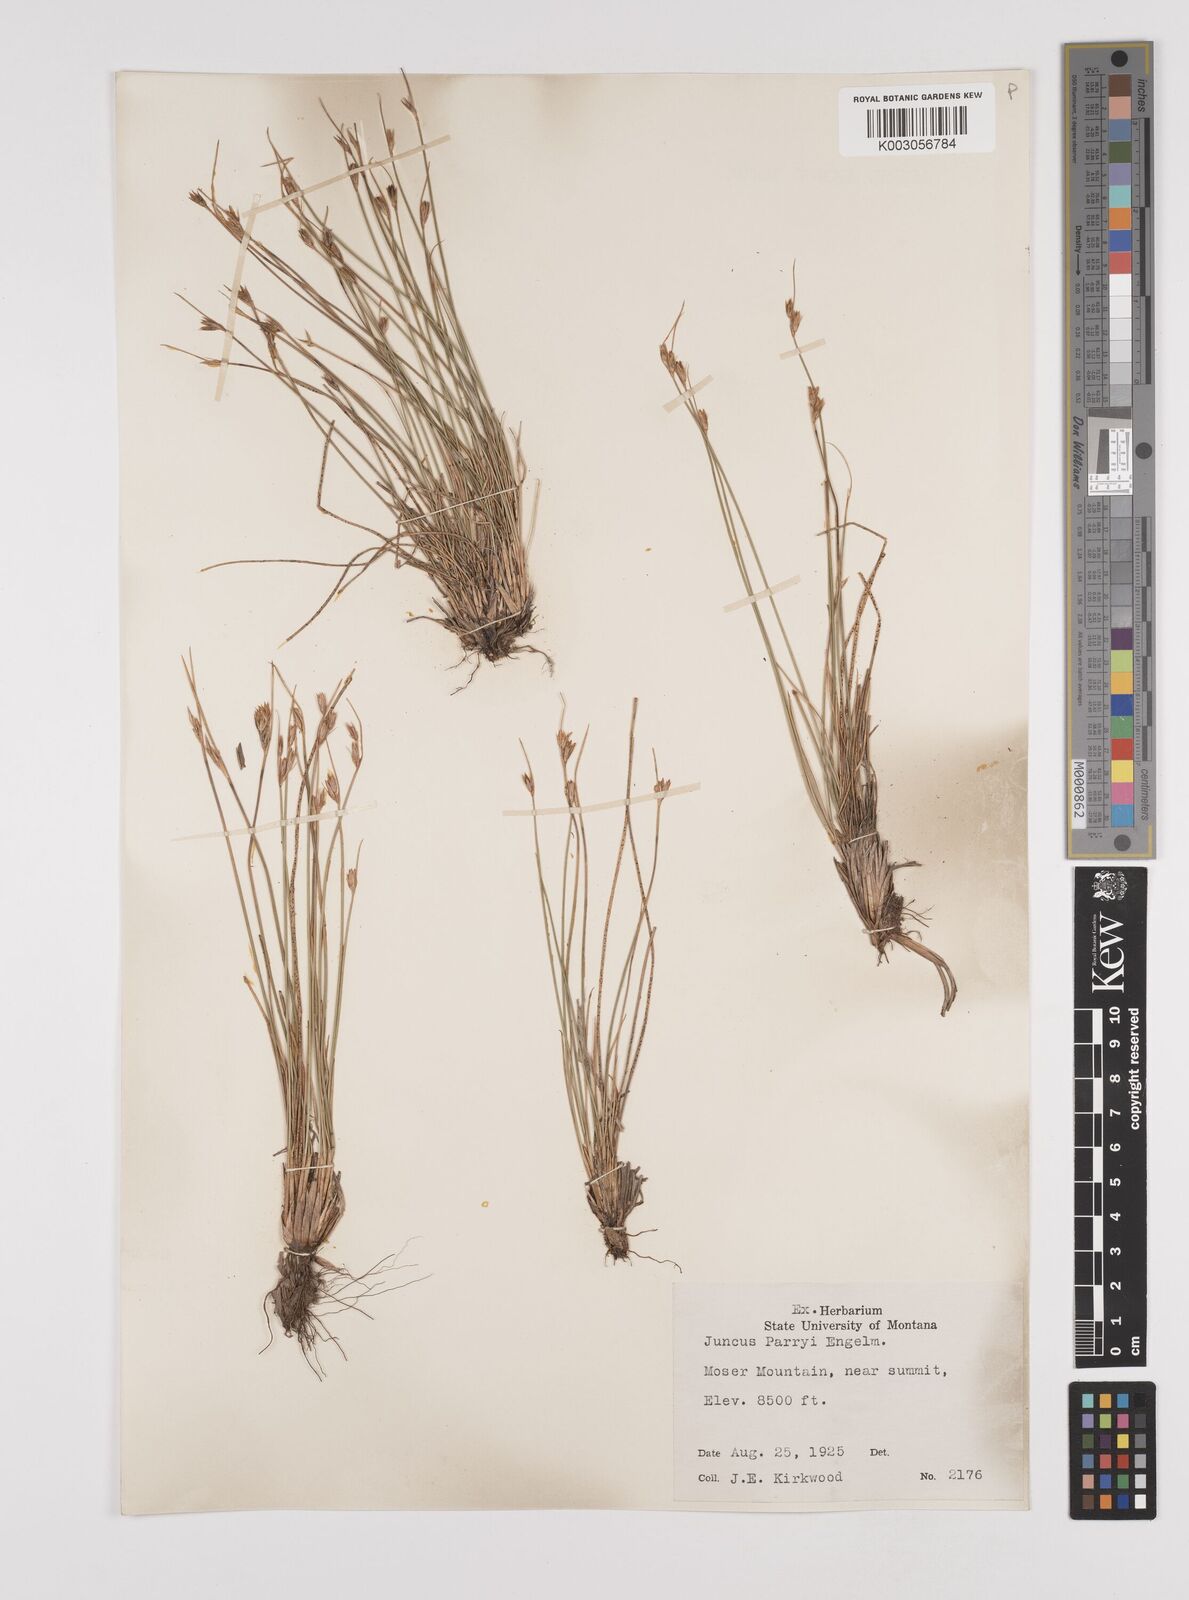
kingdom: Plantae
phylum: Tracheophyta
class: Liliopsida
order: Poales
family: Juncaceae
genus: Juncus
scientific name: Juncus parryi
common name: Parry's rush
